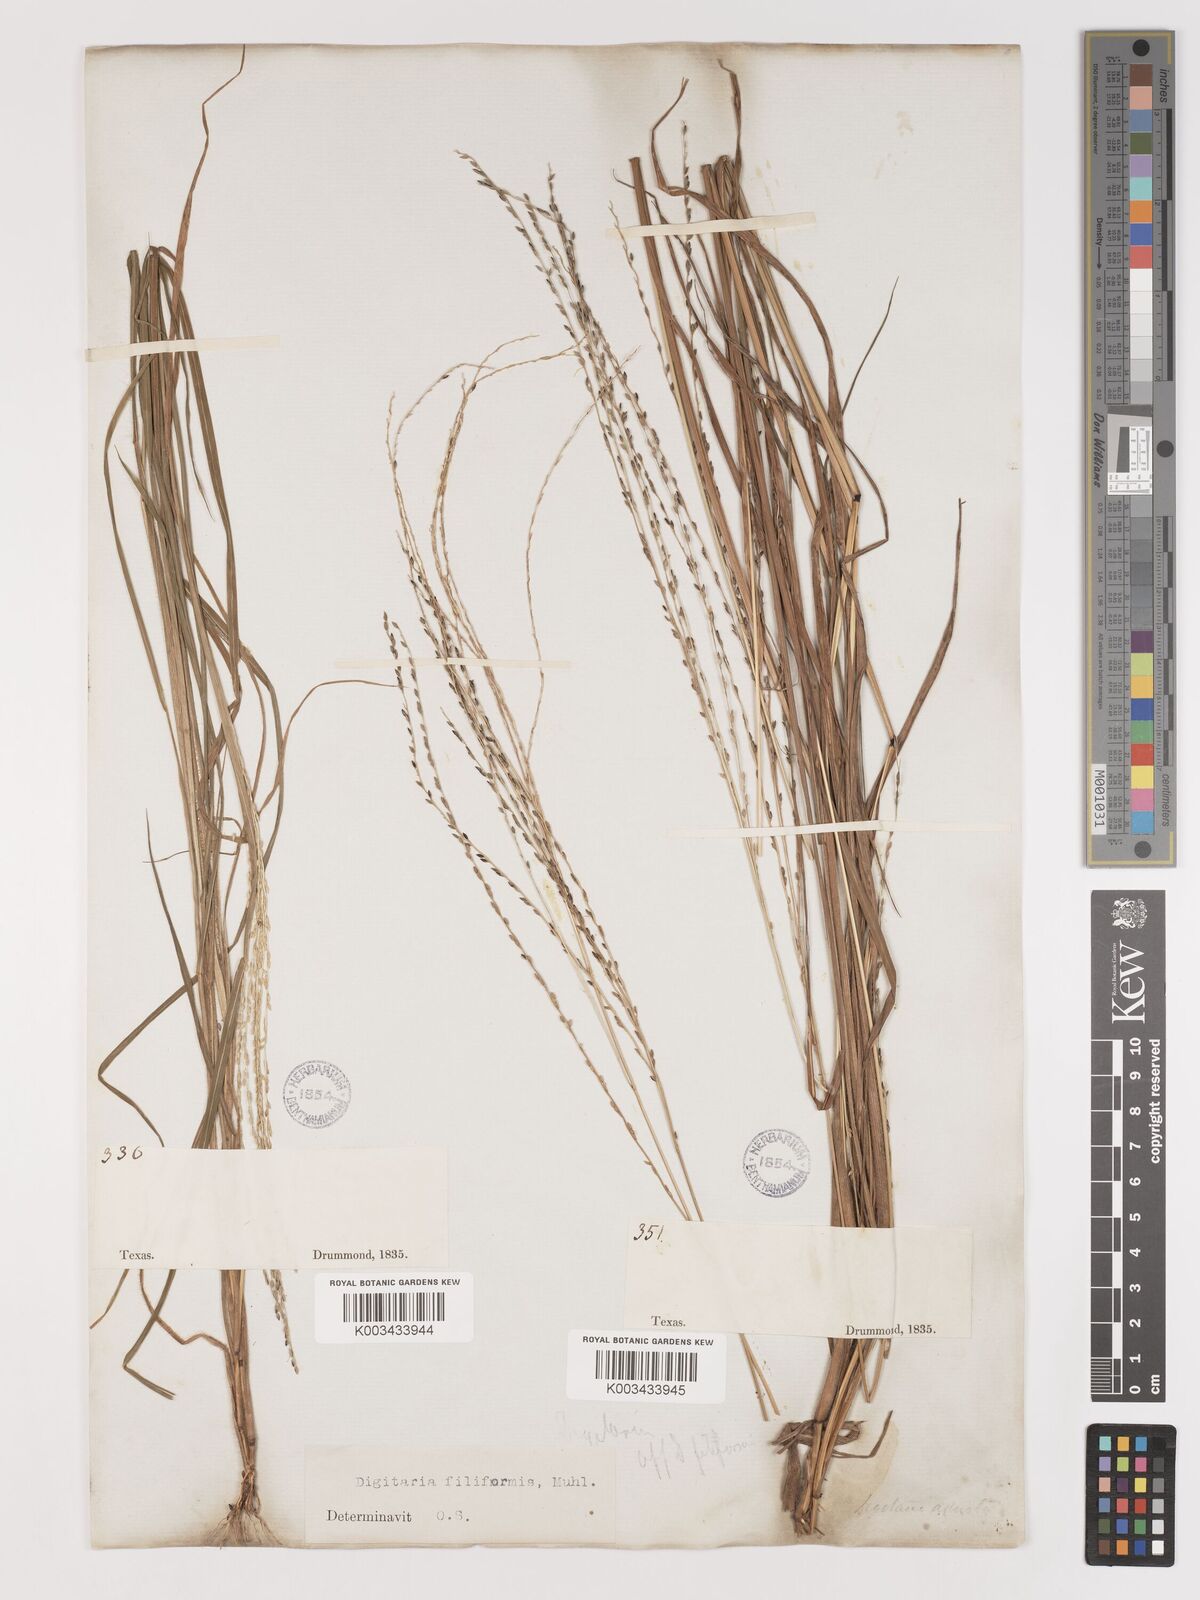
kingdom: Plantae
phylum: Tracheophyta
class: Liliopsida
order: Poales
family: Poaceae
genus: Digitaria
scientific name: Digitaria filiformis
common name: Slender crabgrass
